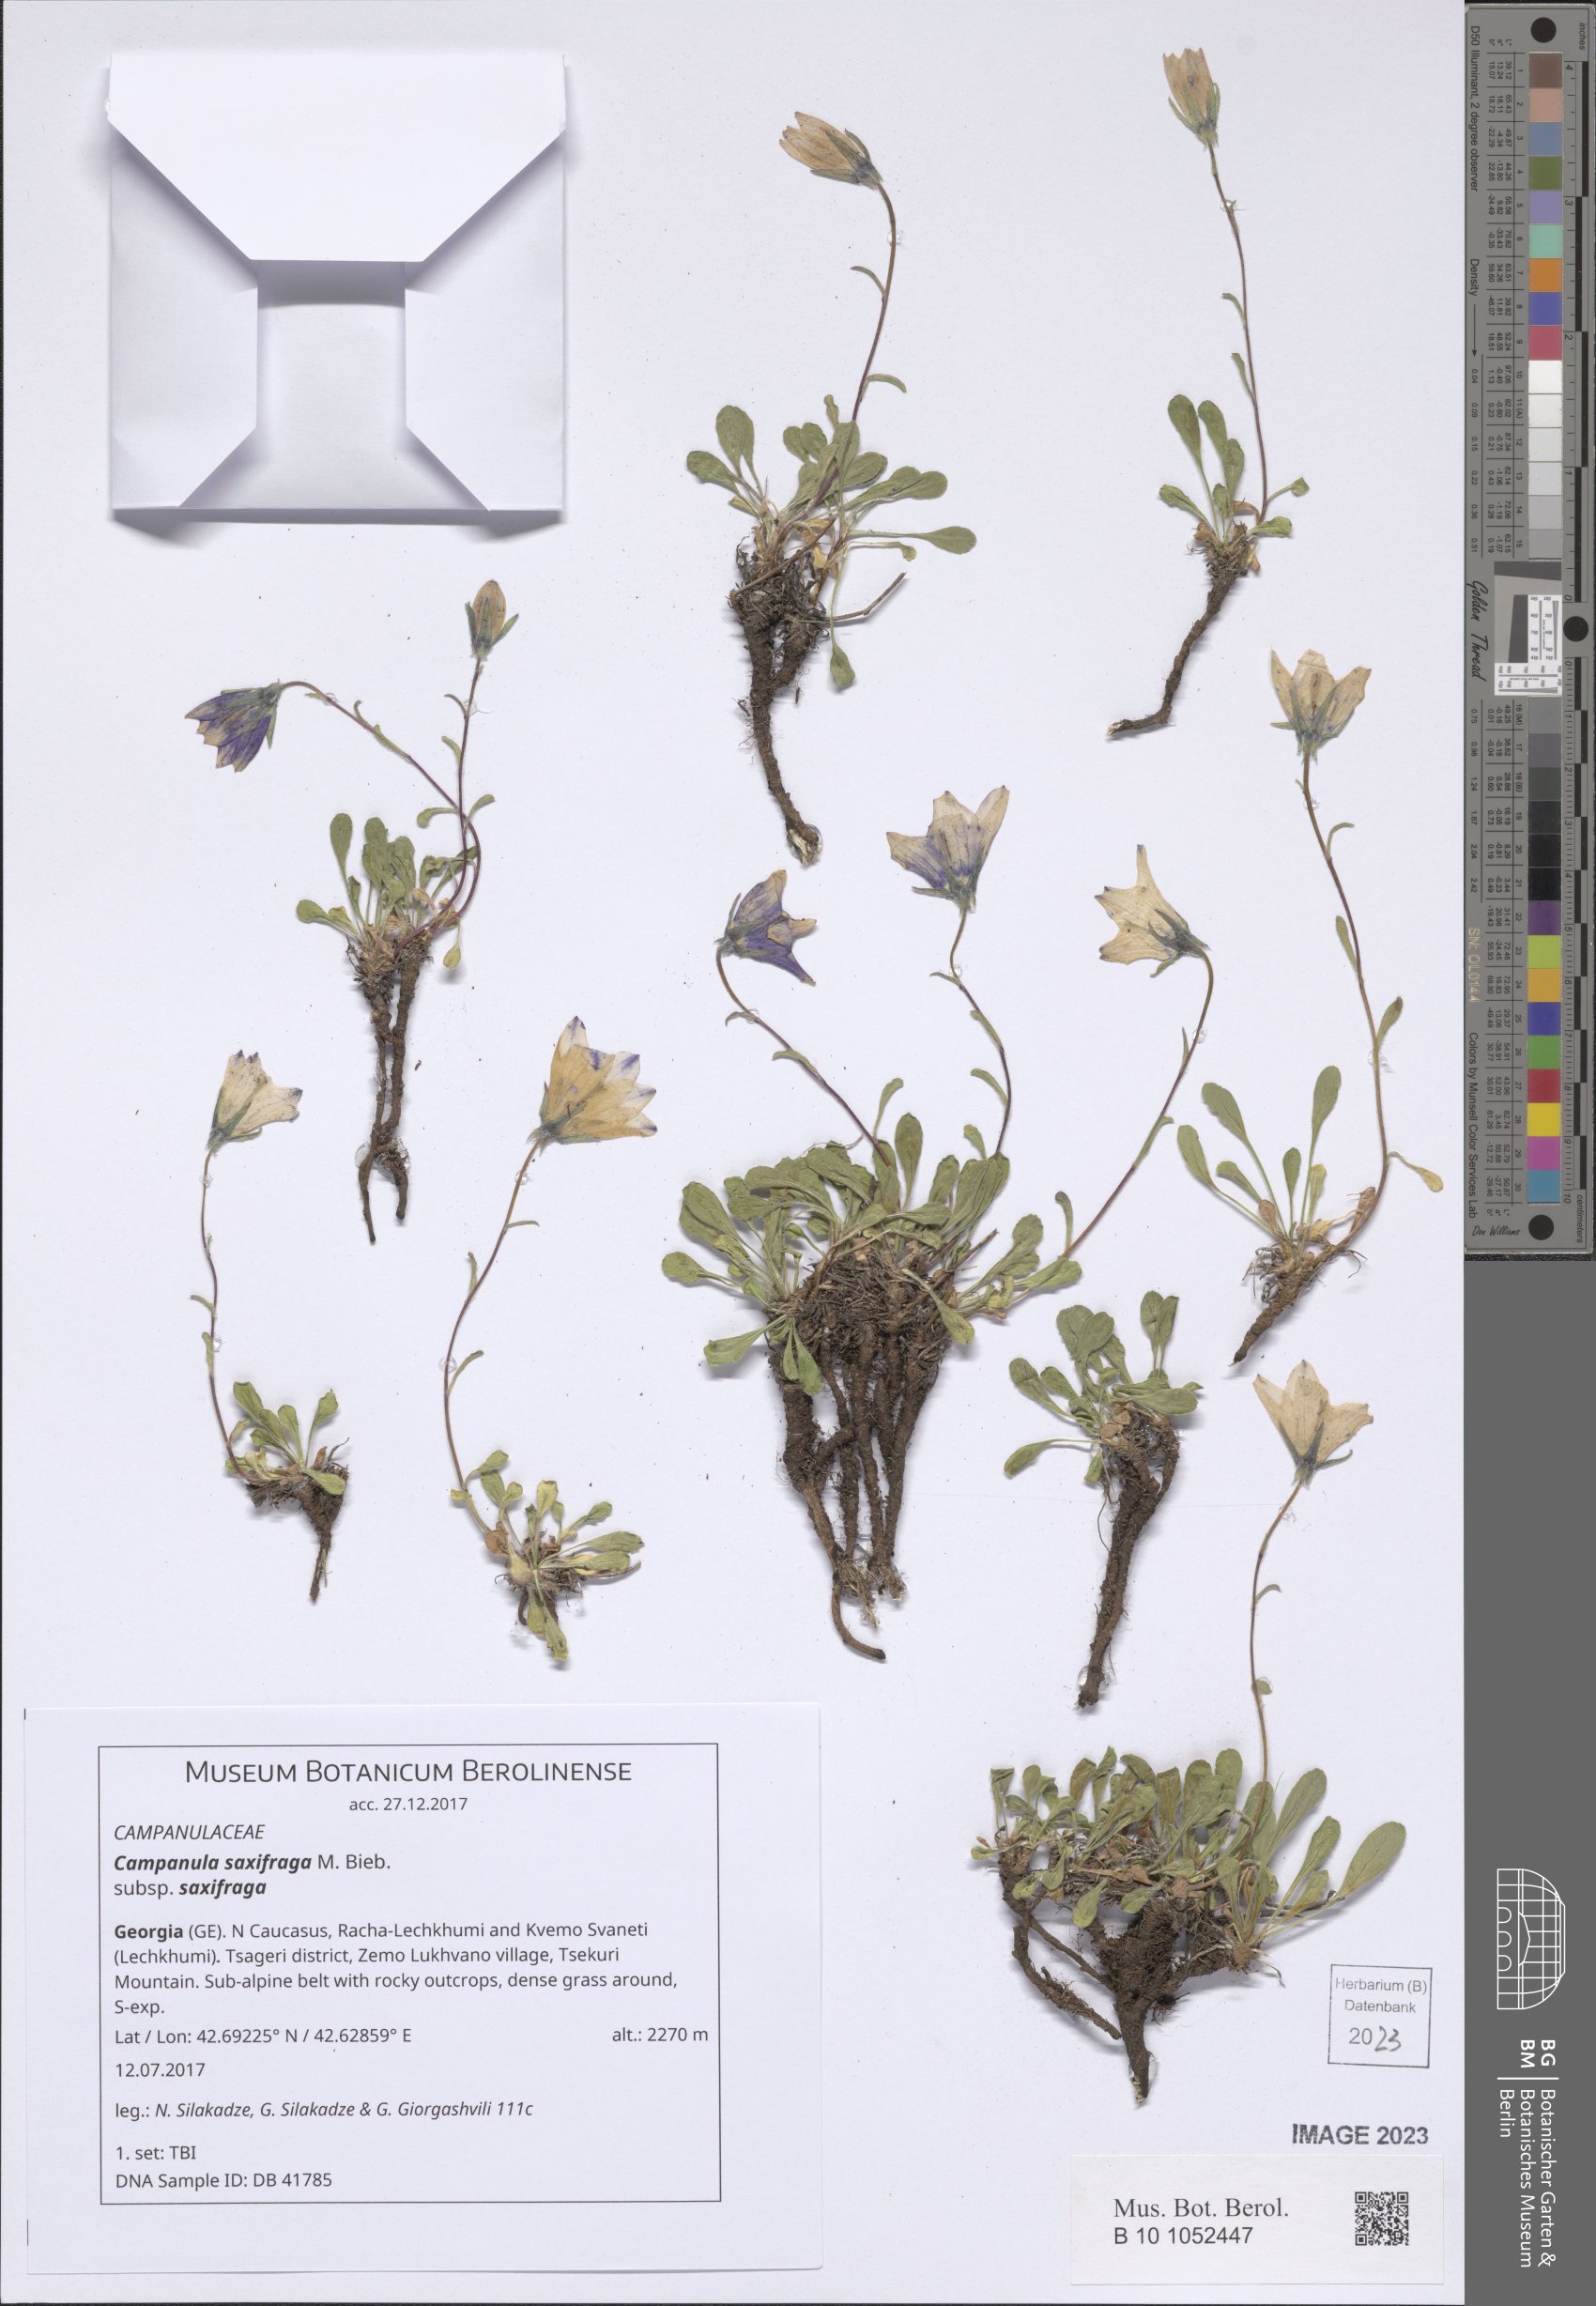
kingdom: Plantae
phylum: Tracheophyta
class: Magnoliopsida
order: Asterales
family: Campanulaceae
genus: Campanula
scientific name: Campanula saxifraga
